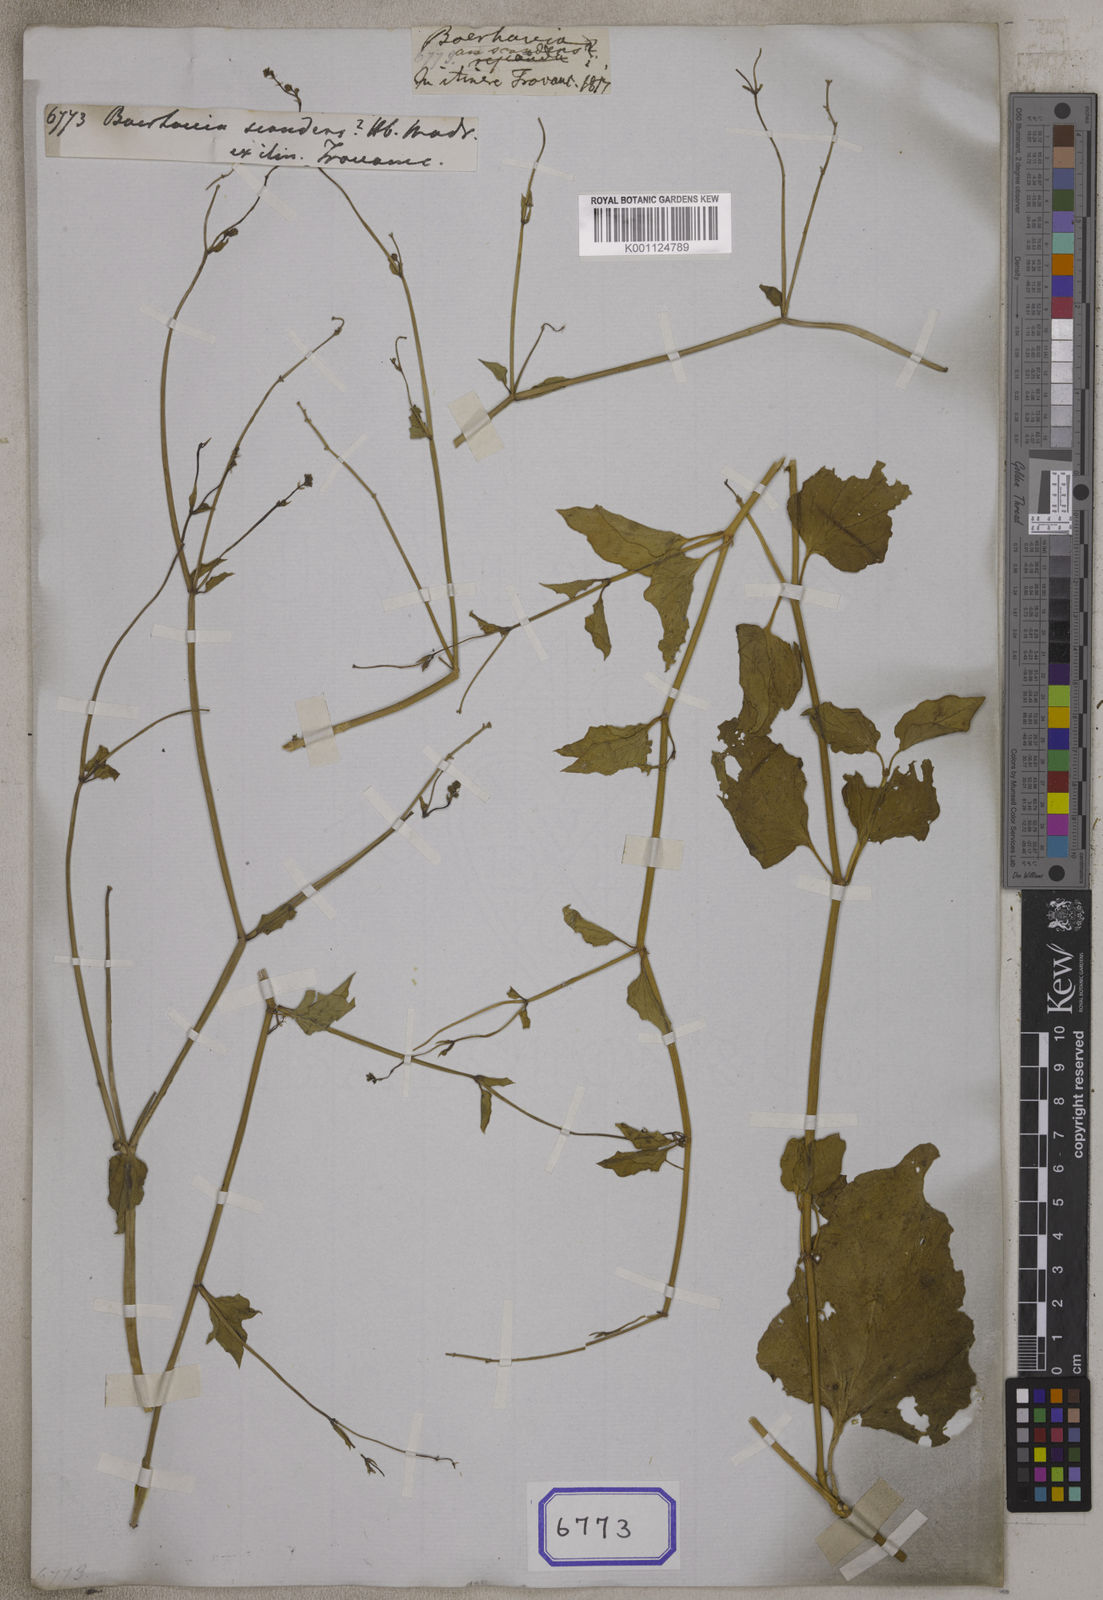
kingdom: Plantae
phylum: Tracheophyta
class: Magnoliopsida
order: Caryophyllales
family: Nyctaginaceae
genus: Commicarpus
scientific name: Commicarpus scandens
